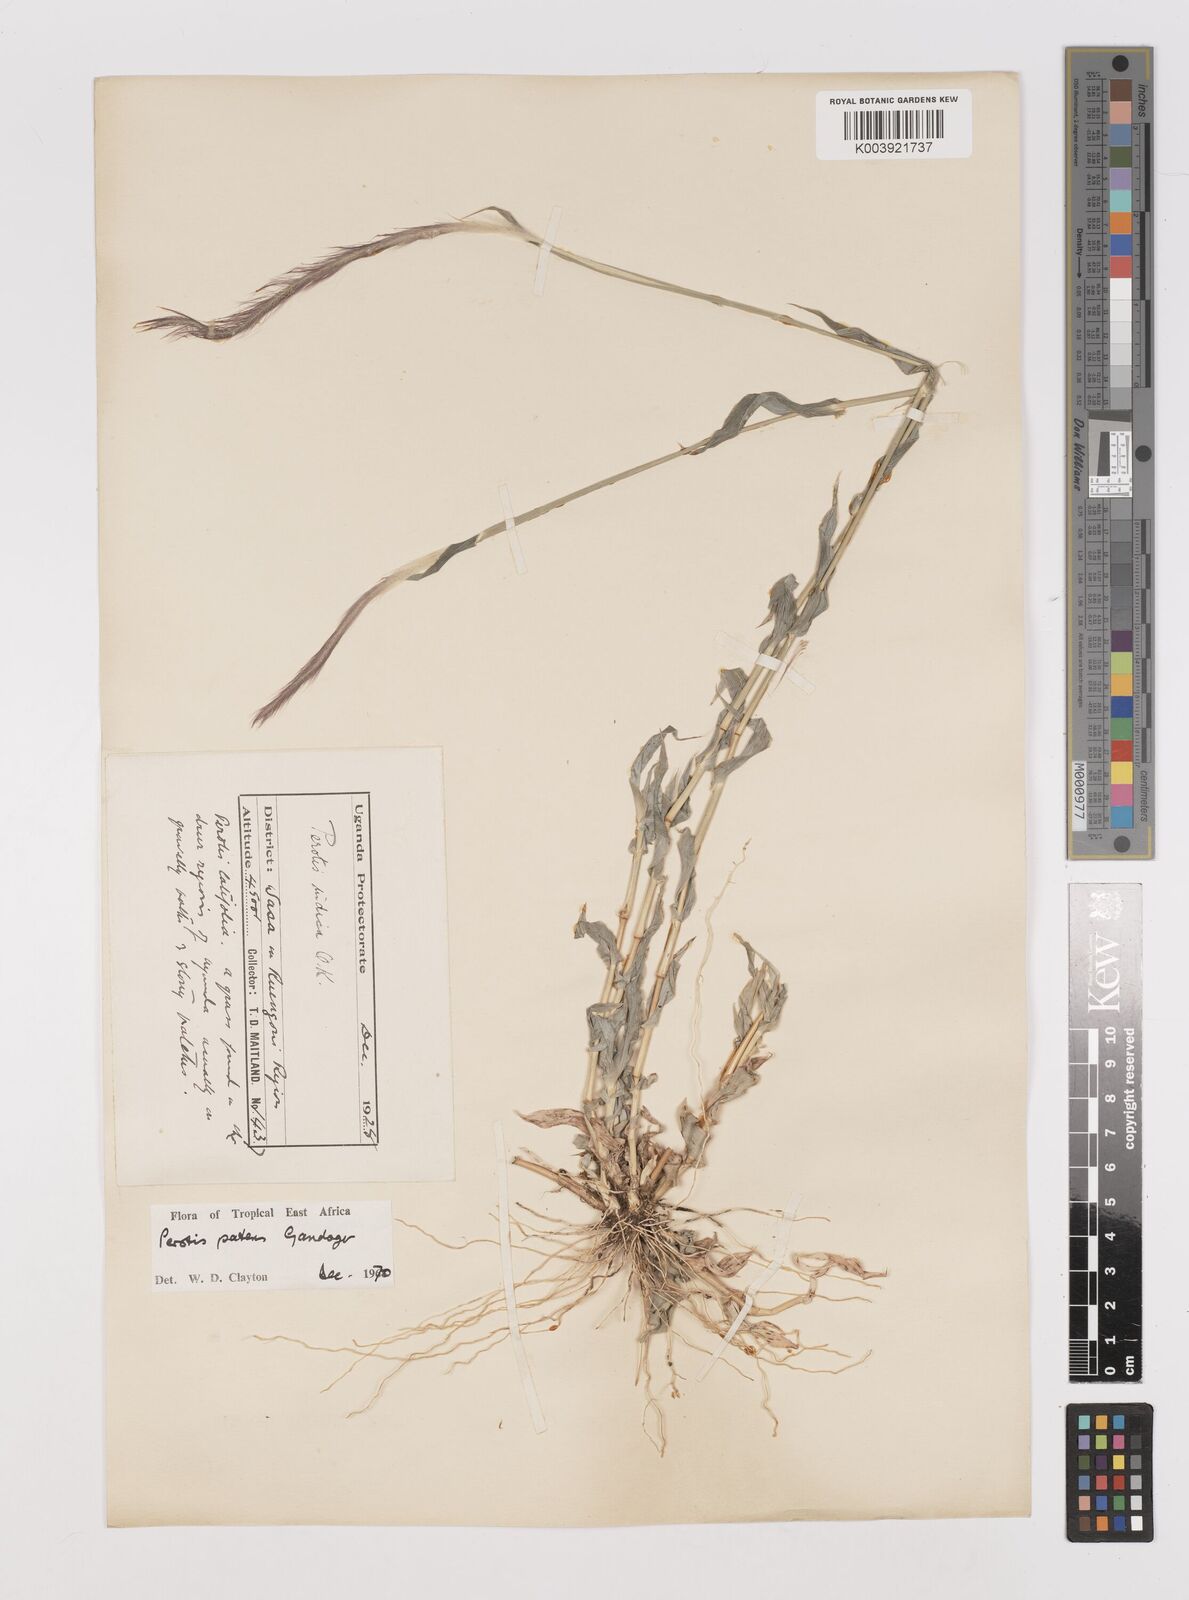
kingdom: Plantae
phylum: Tracheophyta
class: Liliopsida
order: Poales
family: Poaceae
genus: Perotis
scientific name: Perotis patens
